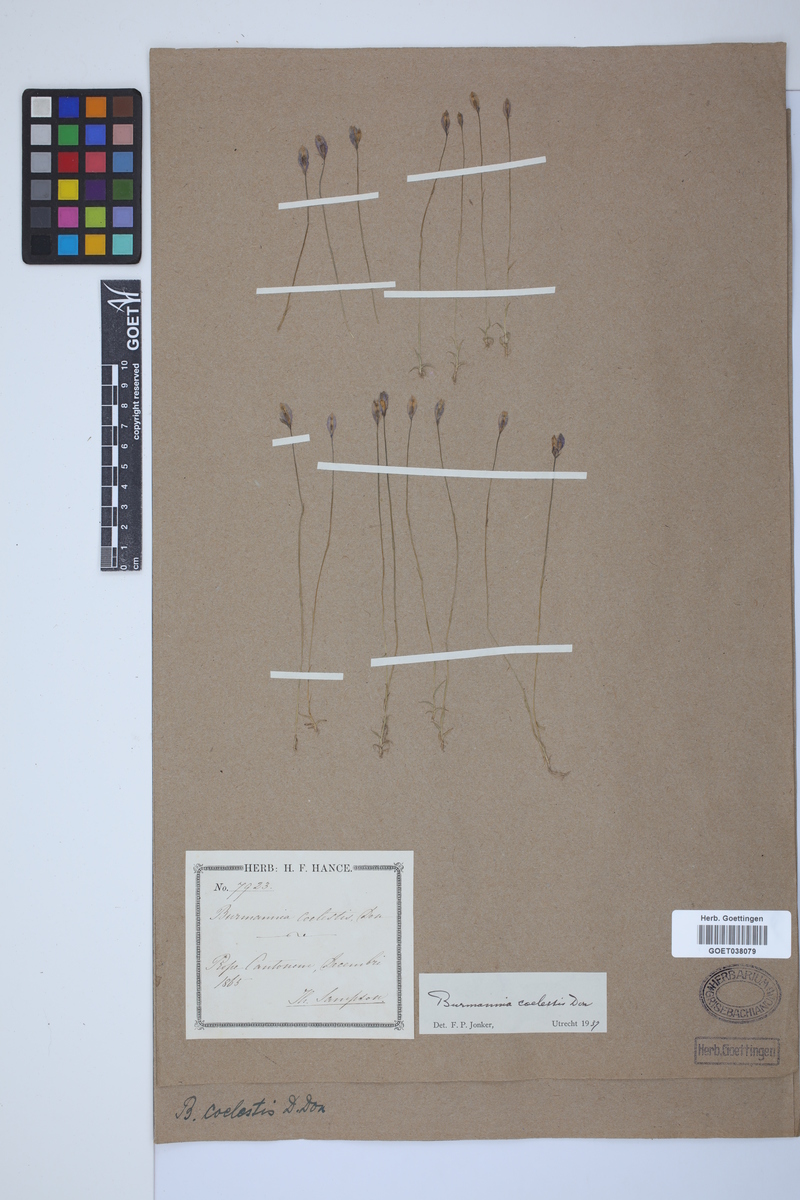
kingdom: Plantae
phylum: Tracheophyta
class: Liliopsida
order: Dioscoreales
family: Burmanniaceae
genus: Burmannia
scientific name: Burmannia coelestis
